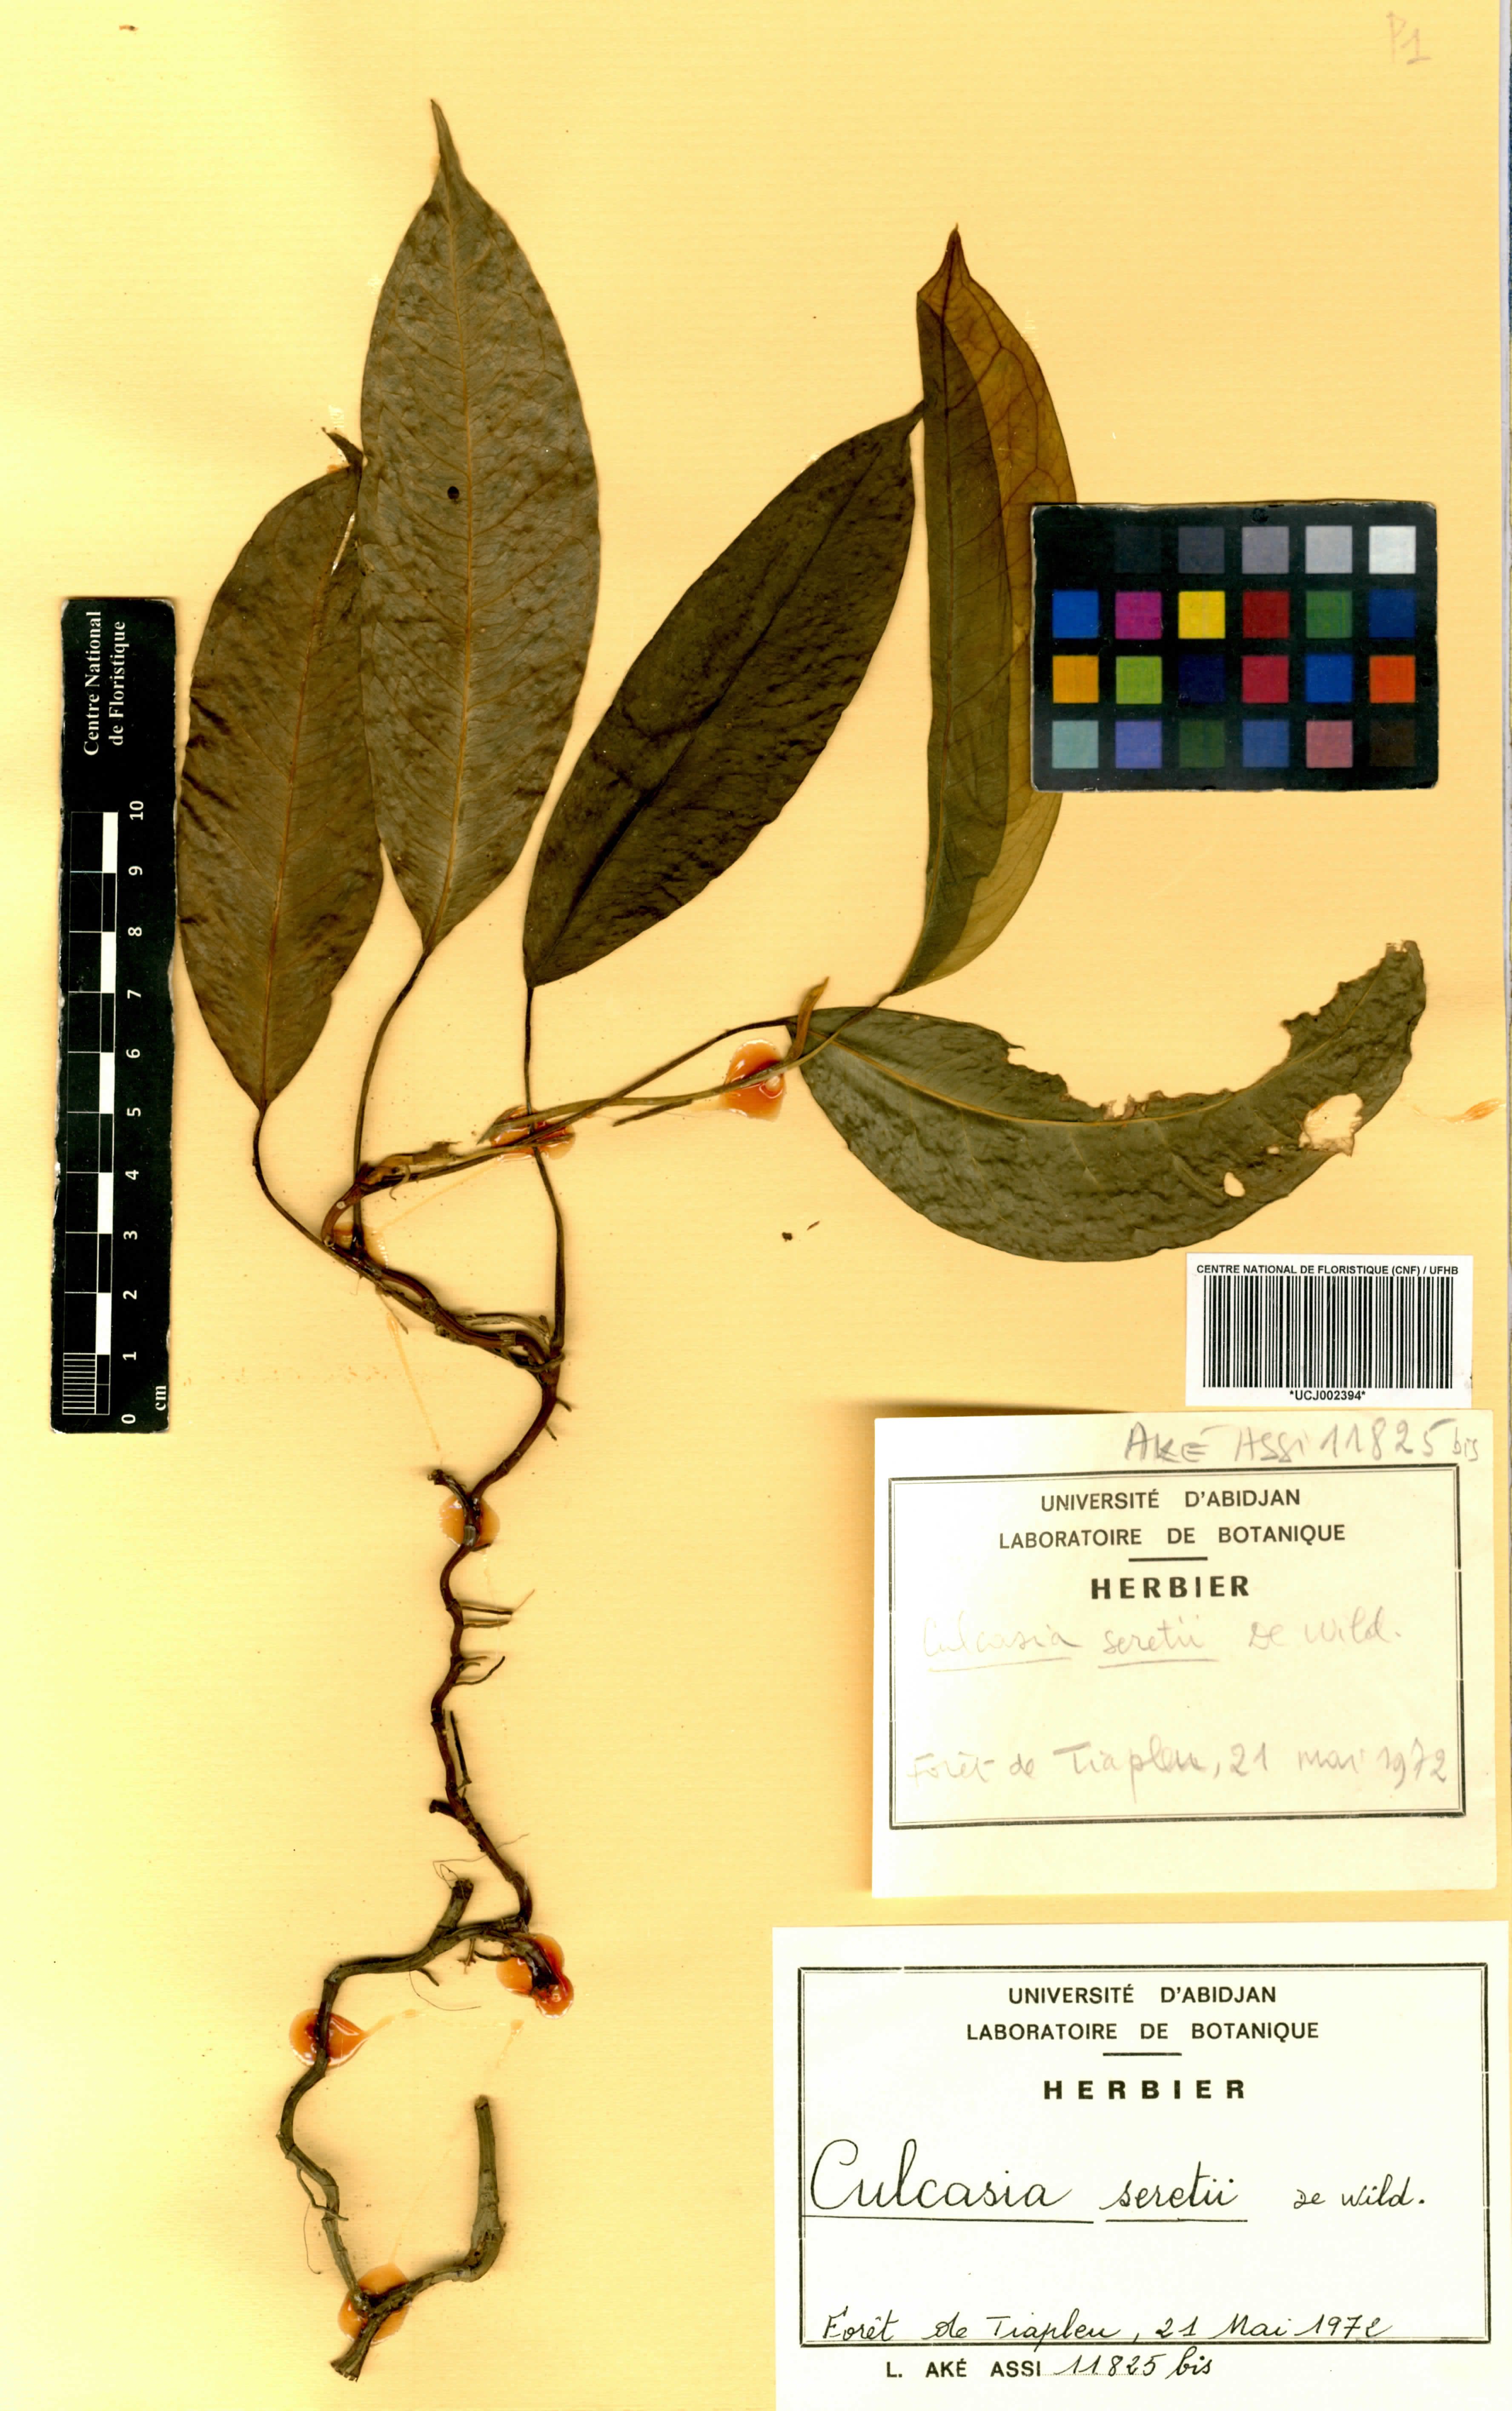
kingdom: Plantae
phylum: Tracheophyta
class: Liliopsida
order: Alismatales
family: Araceae
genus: Culcasia
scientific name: Culcasia seretii
